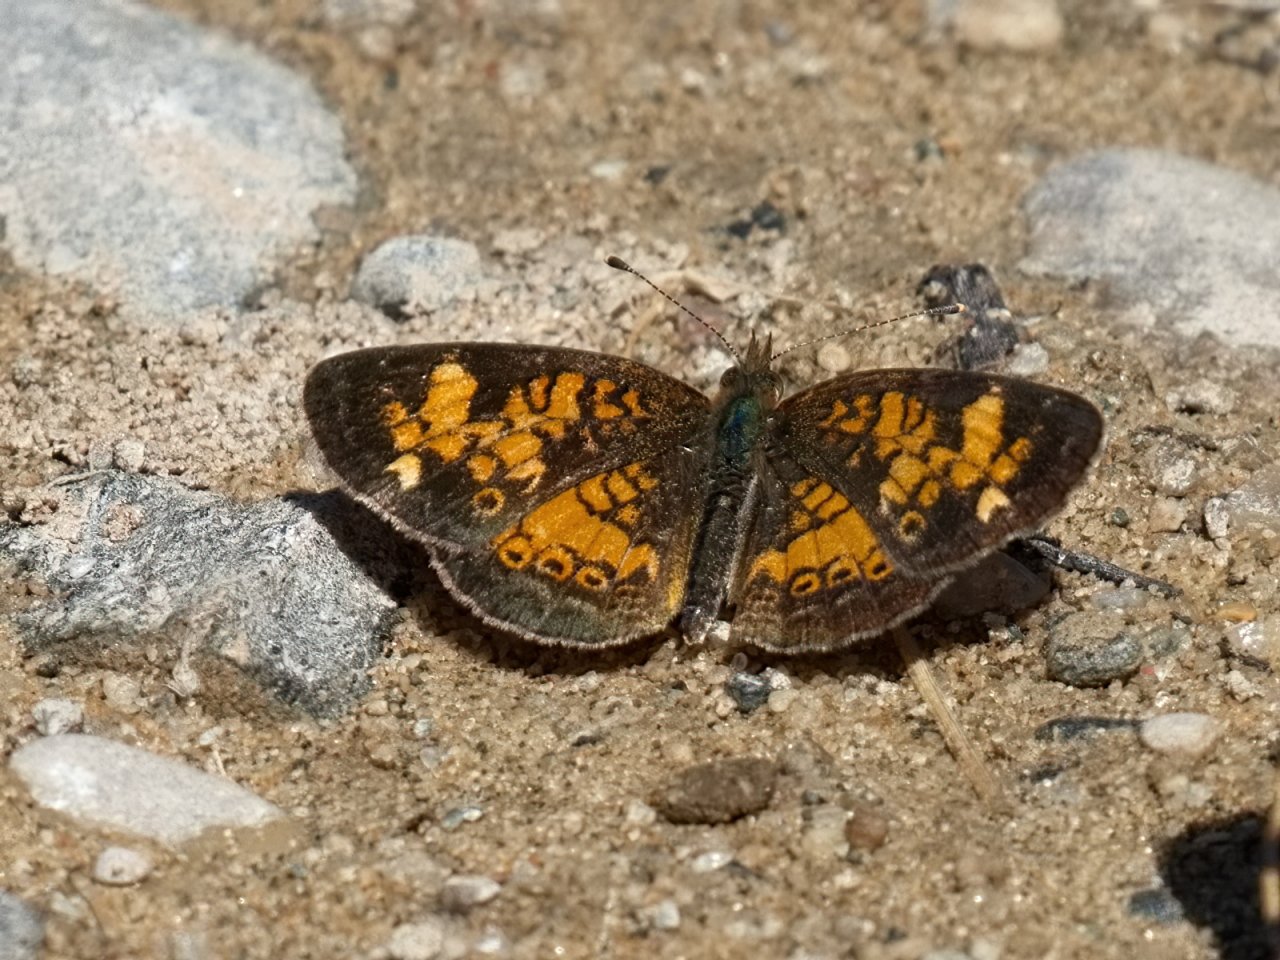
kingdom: Animalia
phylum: Arthropoda
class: Insecta
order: Lepidoptera
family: Nymphalidae
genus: Phyciodes
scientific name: Phyciodes tharos
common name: Northern Crescent
